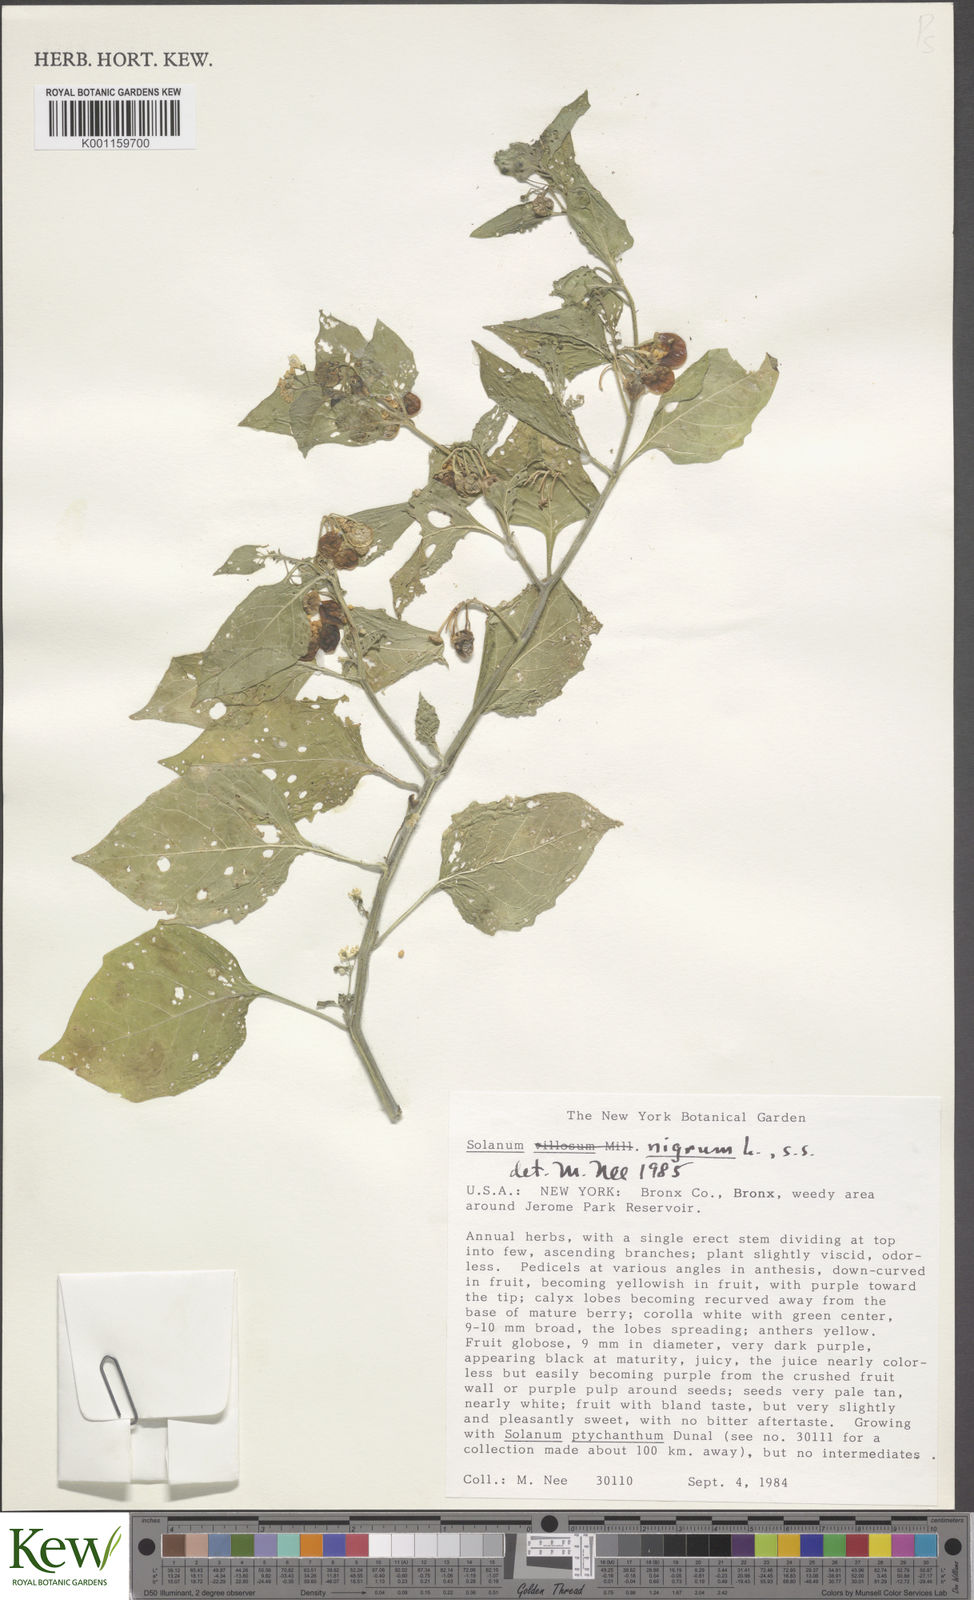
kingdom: Plantae
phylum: Tracheophyta
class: Magnoliopsida
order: Solanales
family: Solanaceae
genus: Solanum
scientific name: Solanum nigrum
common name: Black nightshade
